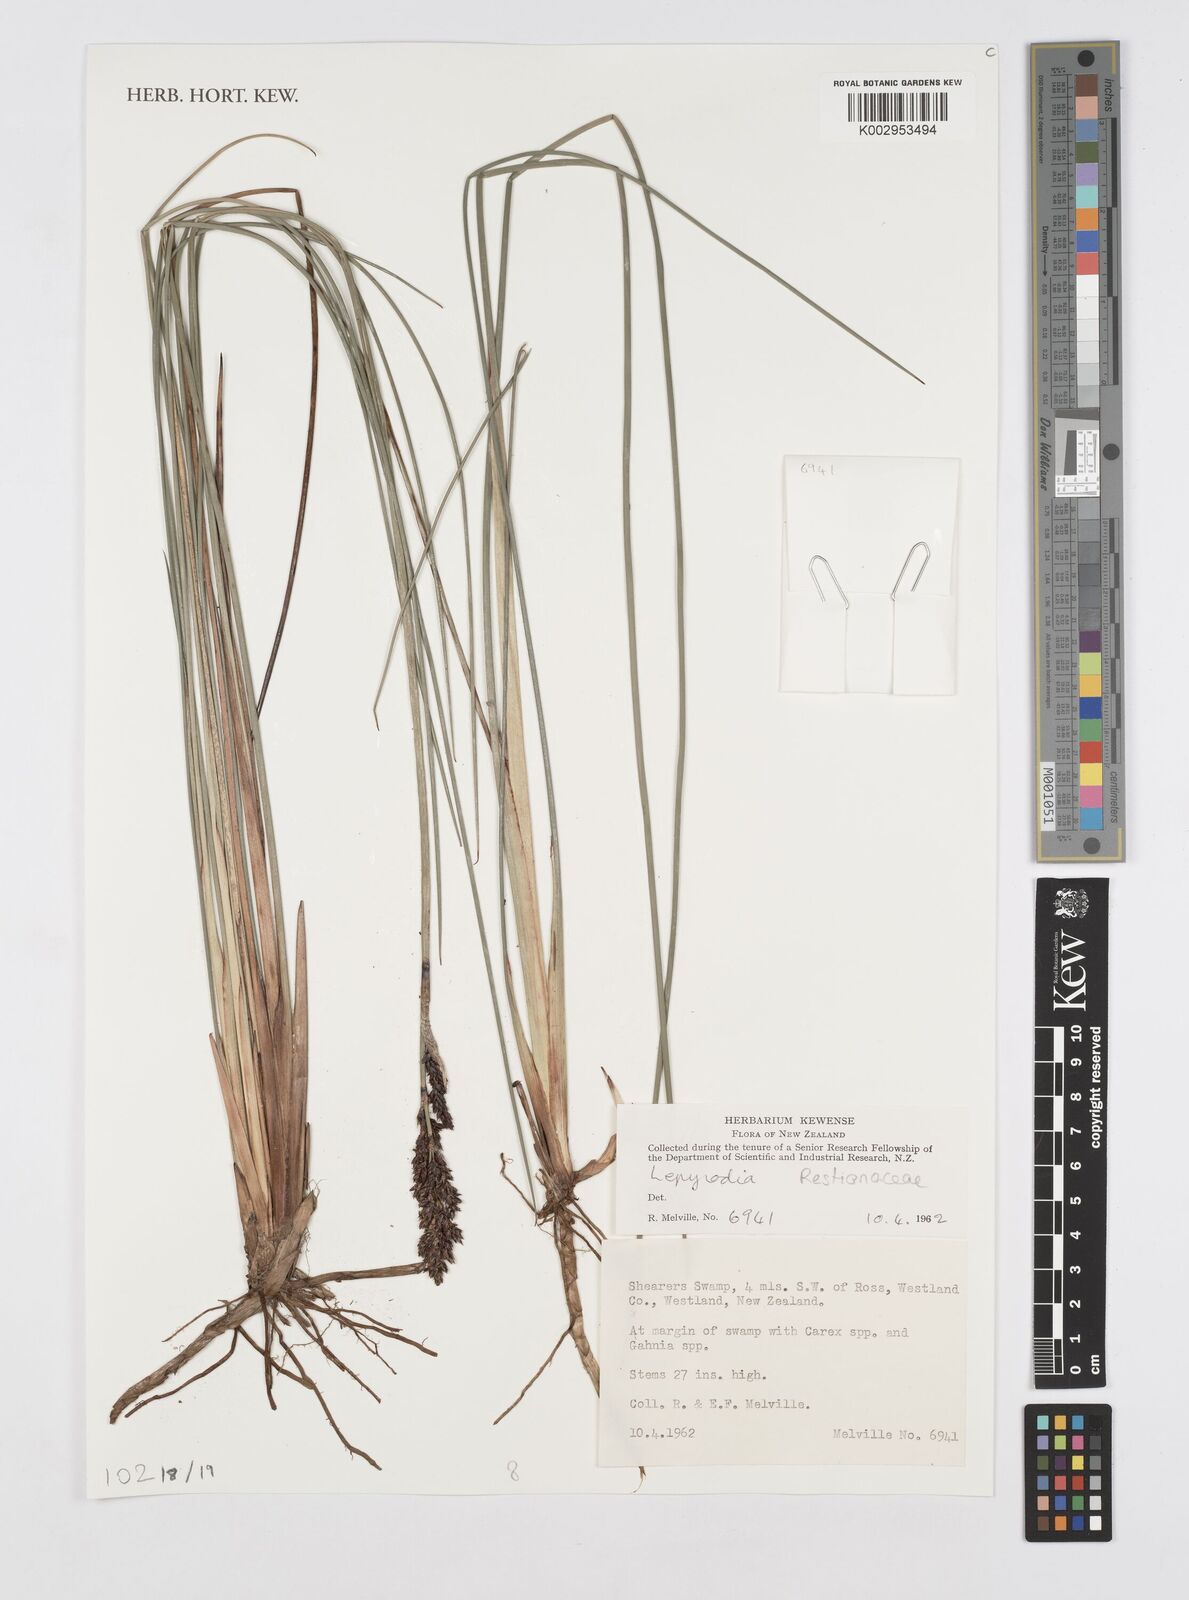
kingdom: Plantae
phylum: Tracheophyta
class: Liliopsida
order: Poales
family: Restionaceae
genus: Lepyrodia
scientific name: Lepyrodia
